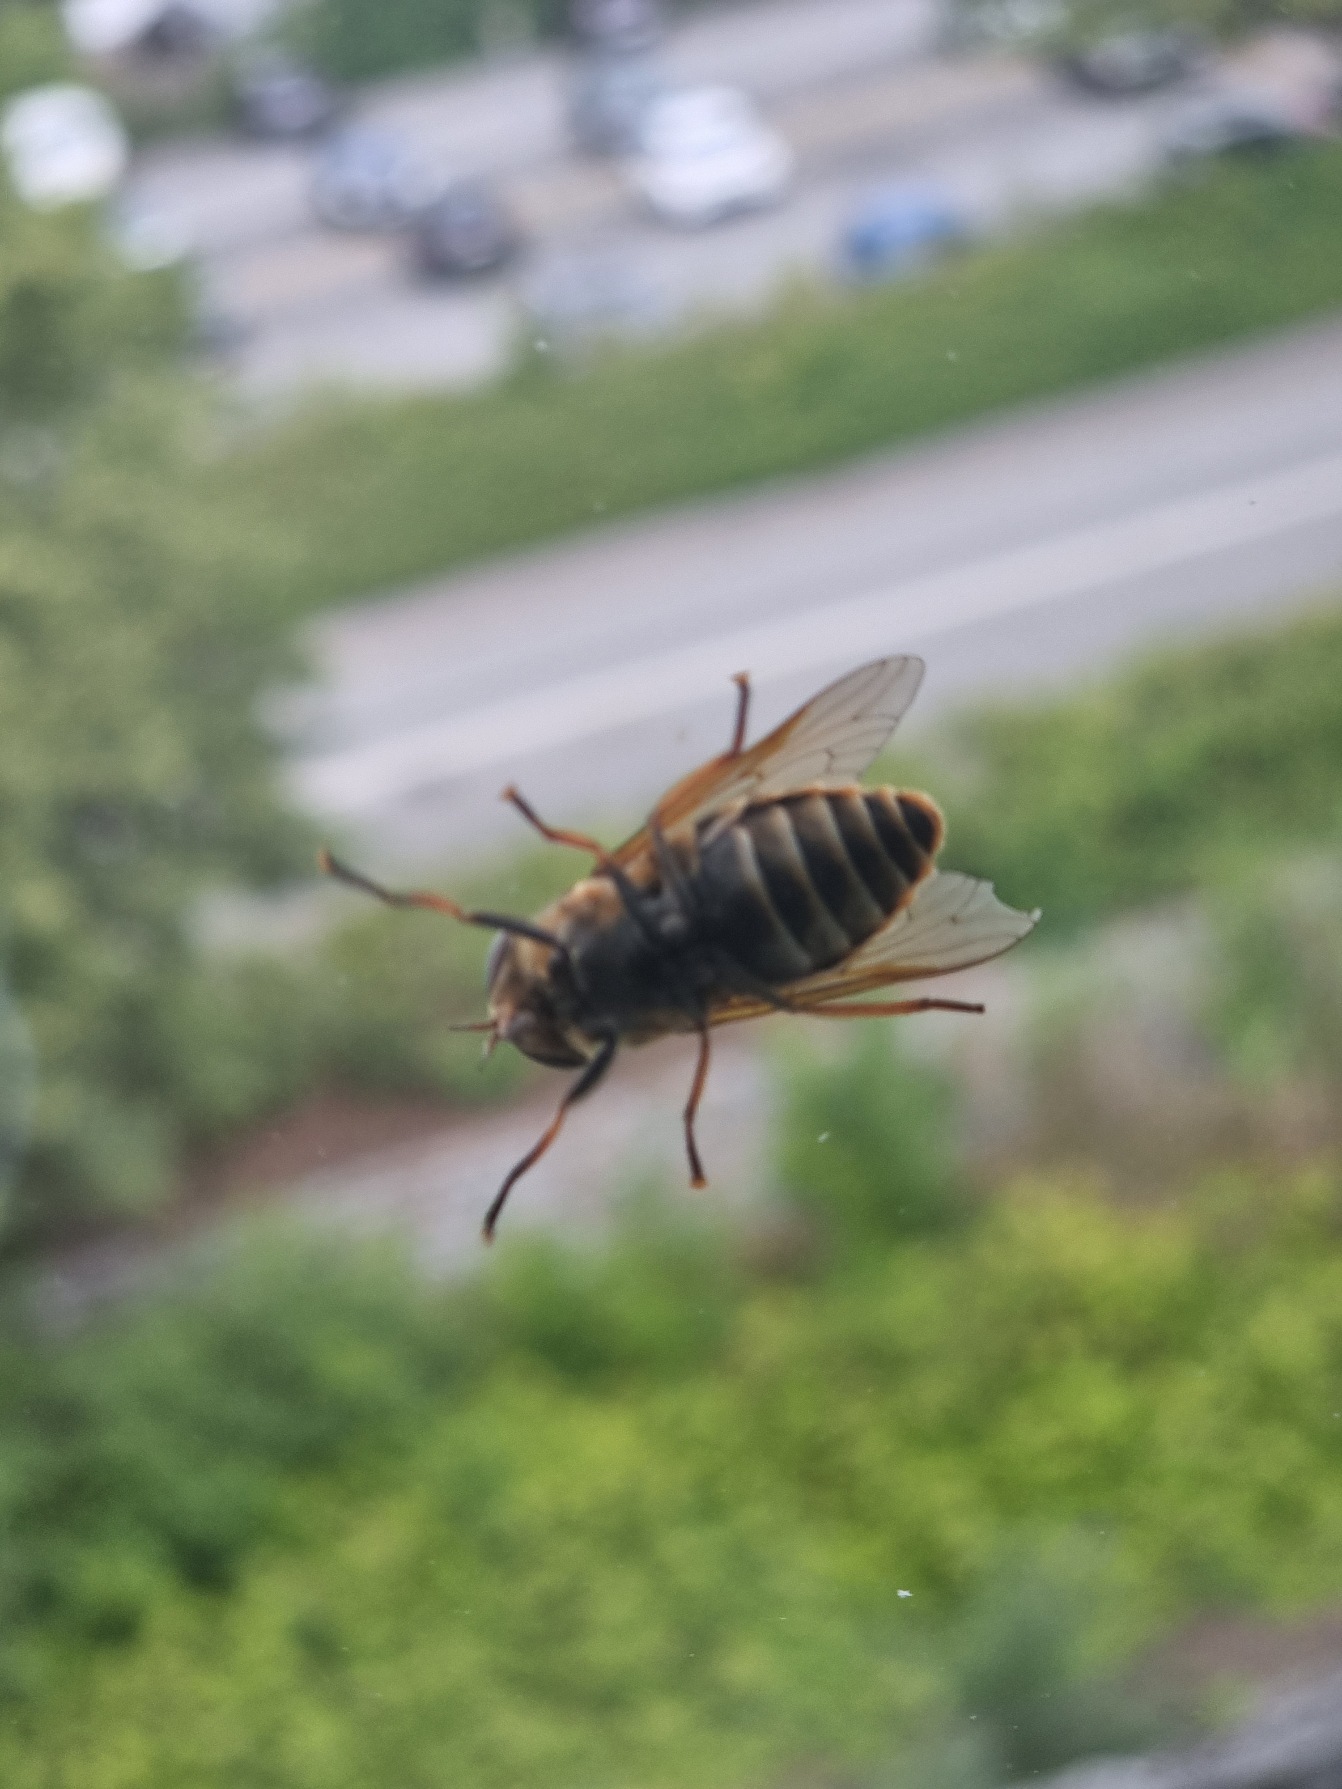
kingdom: Animalia
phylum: Arthropoda
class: Insecta
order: Diptera
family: Tabanidae
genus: Tabanus
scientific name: Tabanus sudeticus
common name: Hesteklæg
